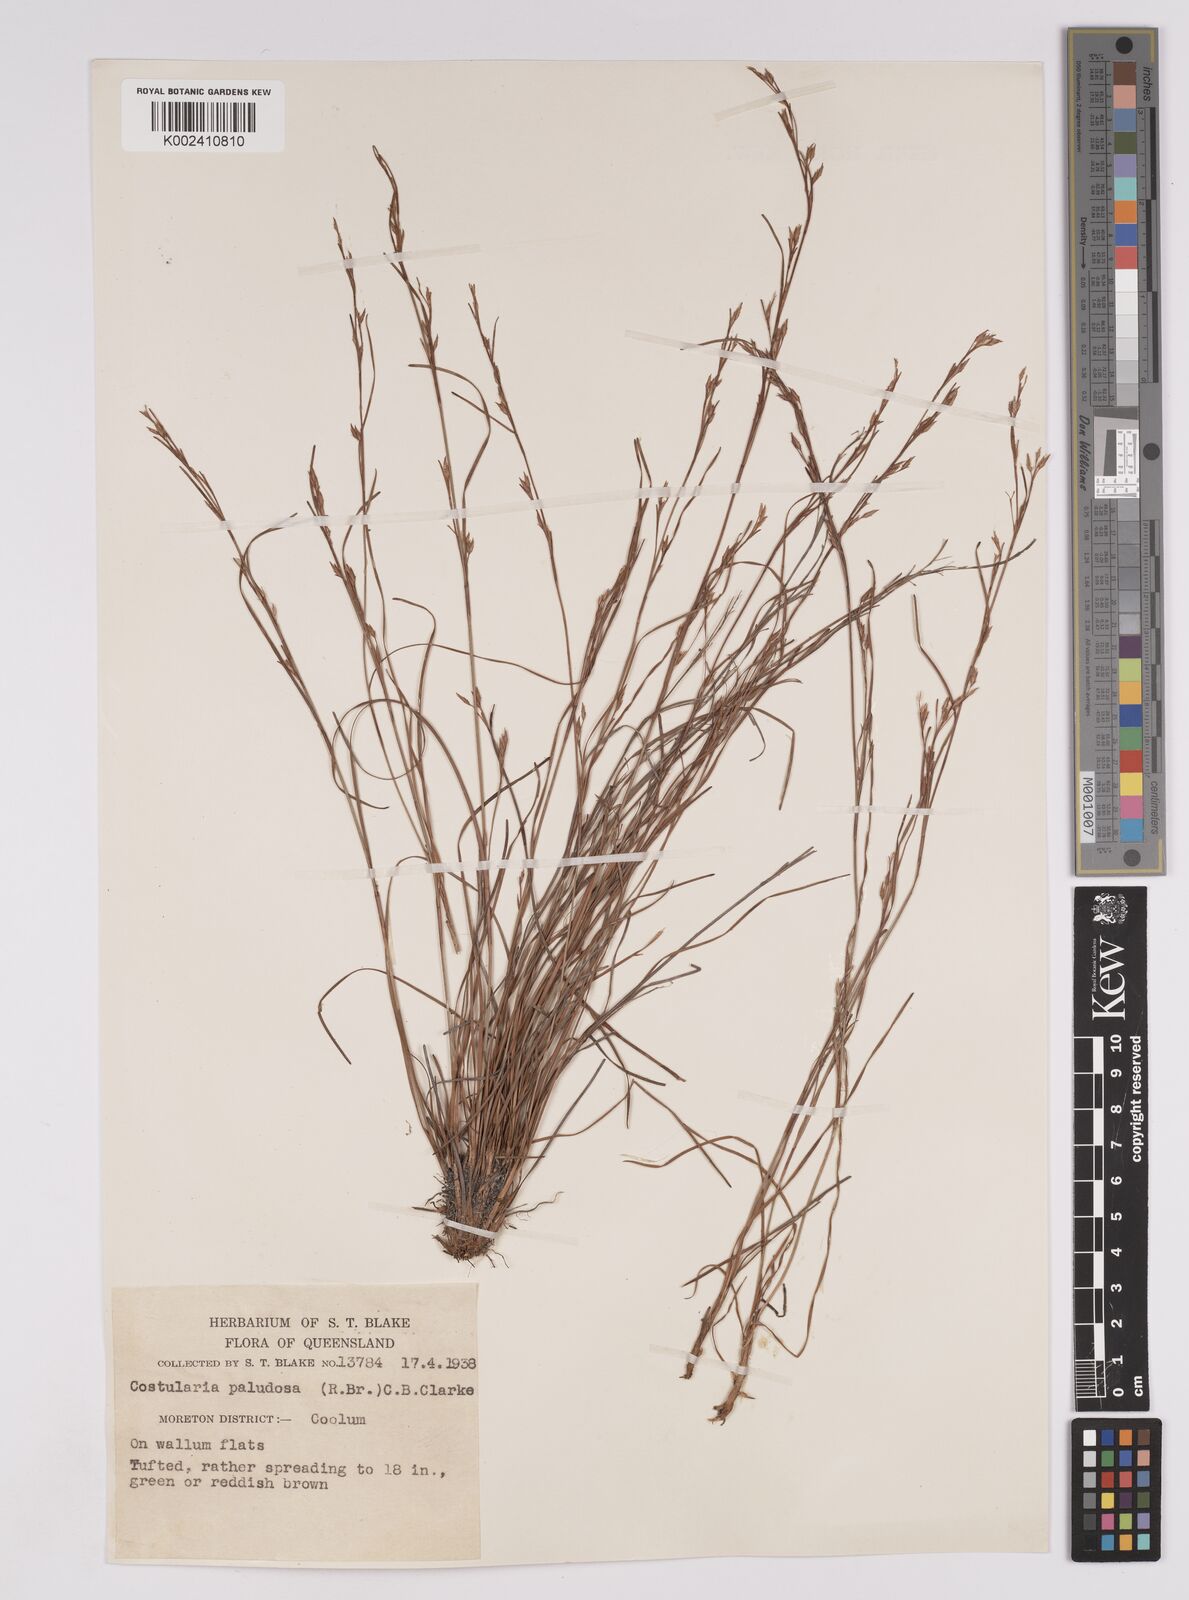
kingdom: Plantae
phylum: Tracheophyta
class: Liliopsida
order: Poales
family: Cyperaceae
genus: Anthelepis
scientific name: Anthelepis paludosa
